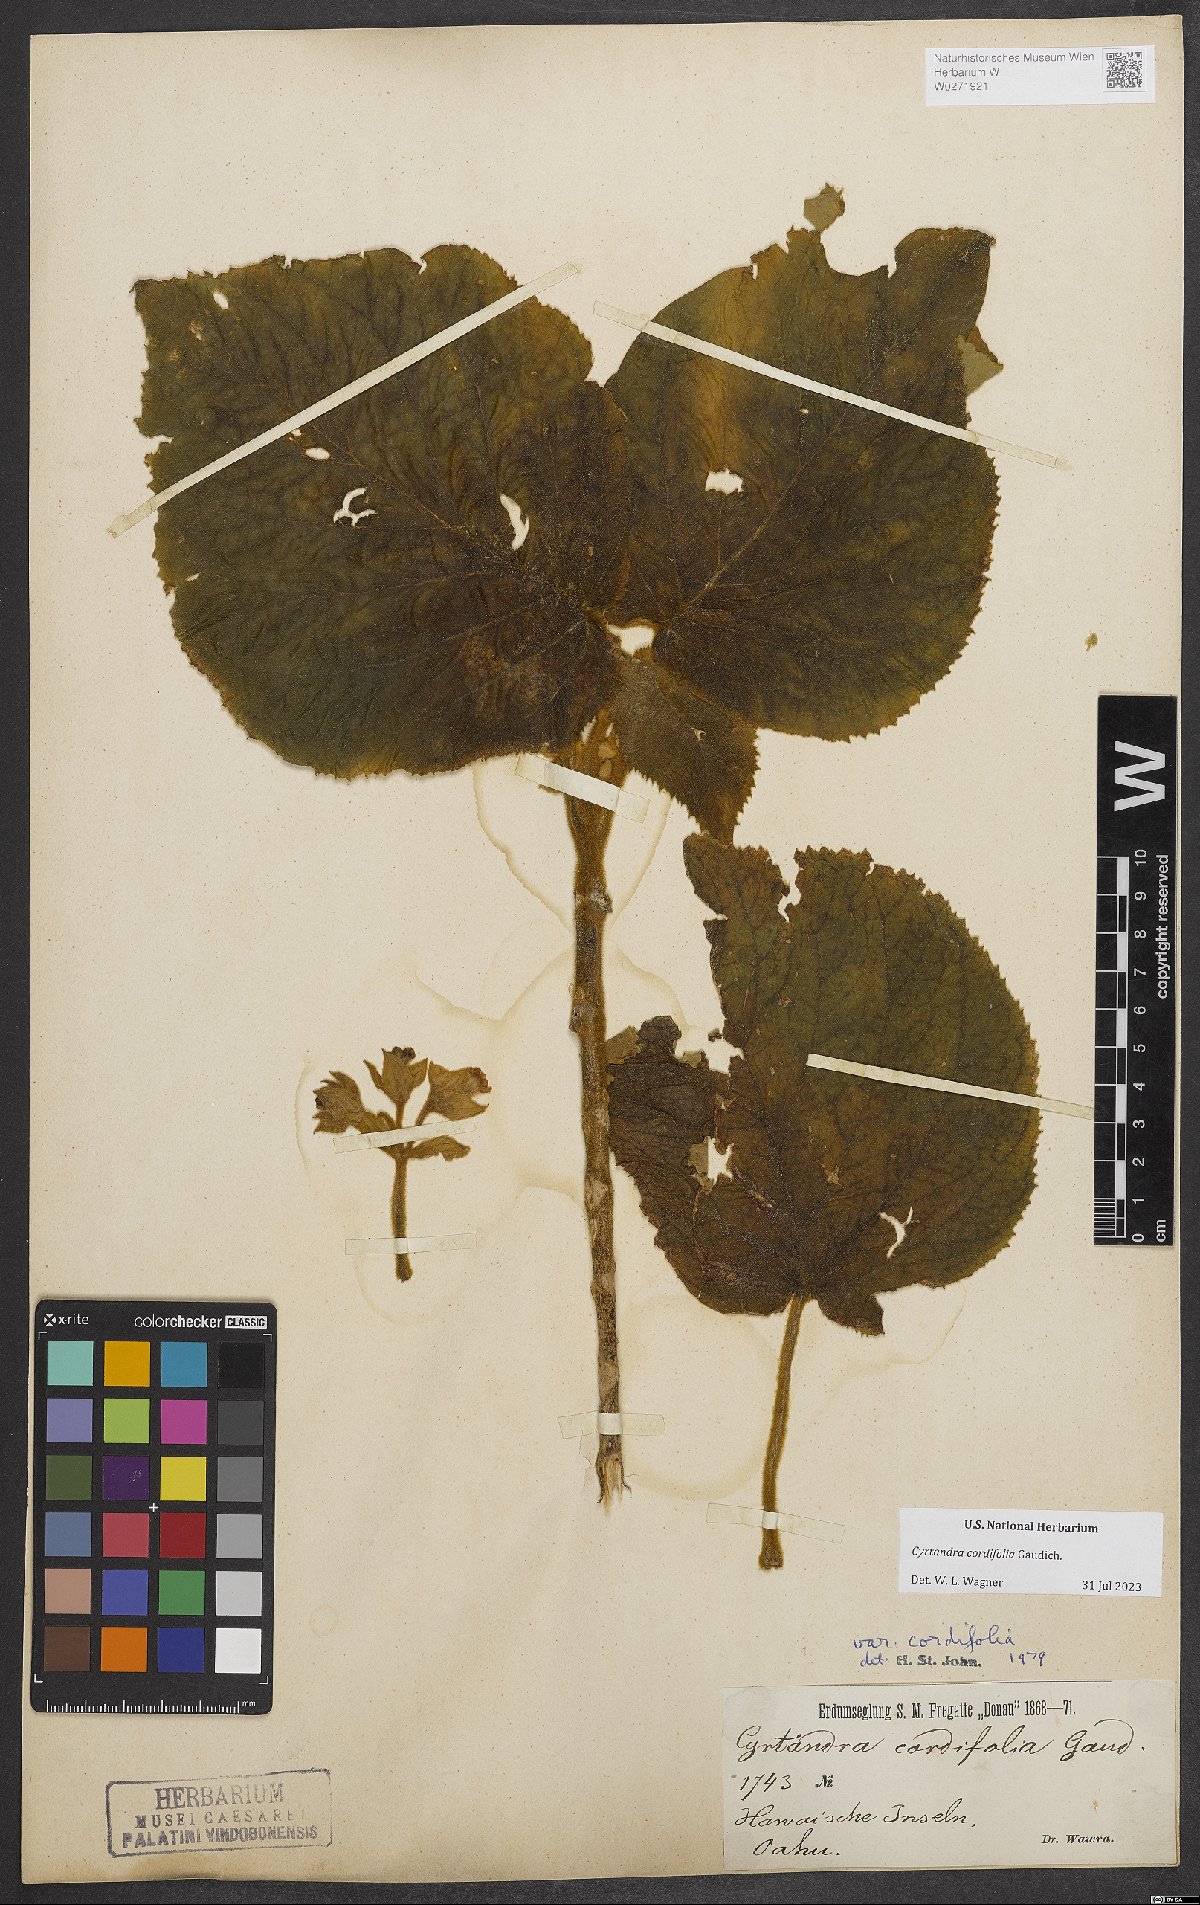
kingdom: Plantae
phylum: Tracheophyta
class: Magnoliopsida
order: Lamiales
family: Gesneriaceae
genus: Cyrtandra
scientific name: Cyrtandra cordifolia
